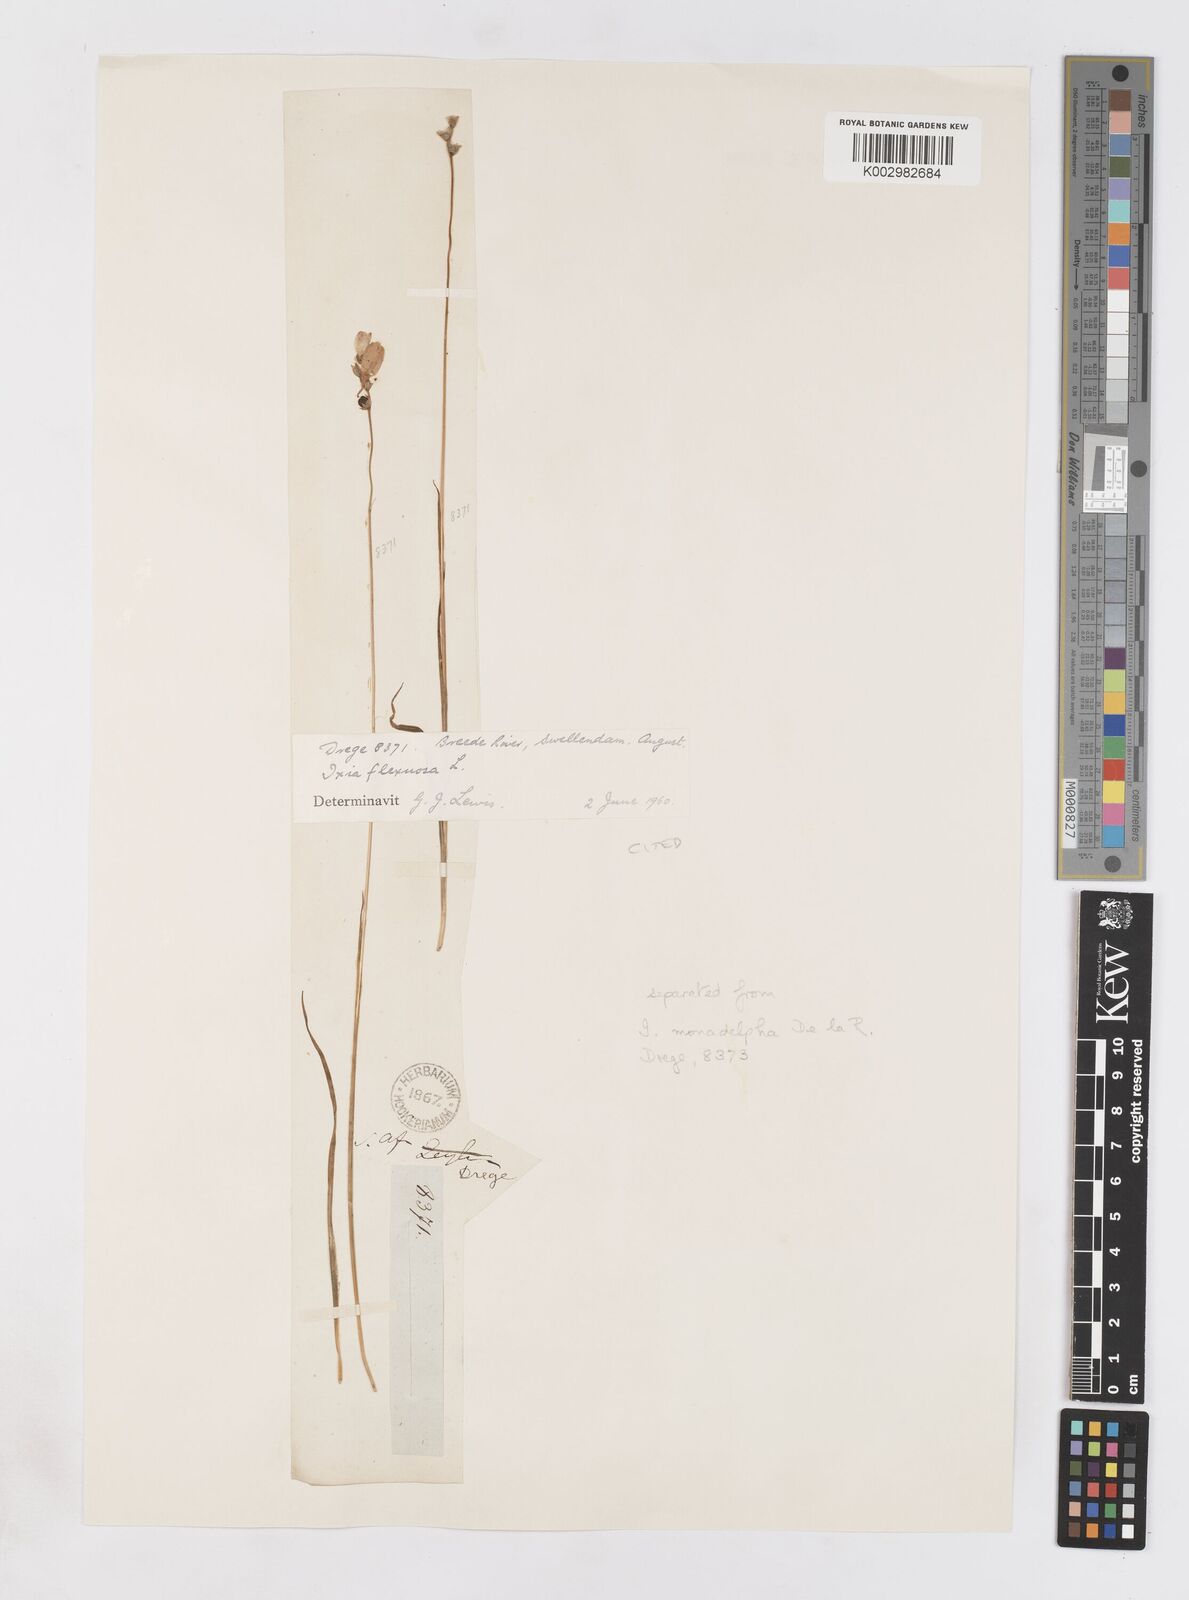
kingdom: Plantae
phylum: Tracheophyta
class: Liliopsida
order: Asparagales
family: Iridaceae
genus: Ixia
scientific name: Ixia flexuosa
